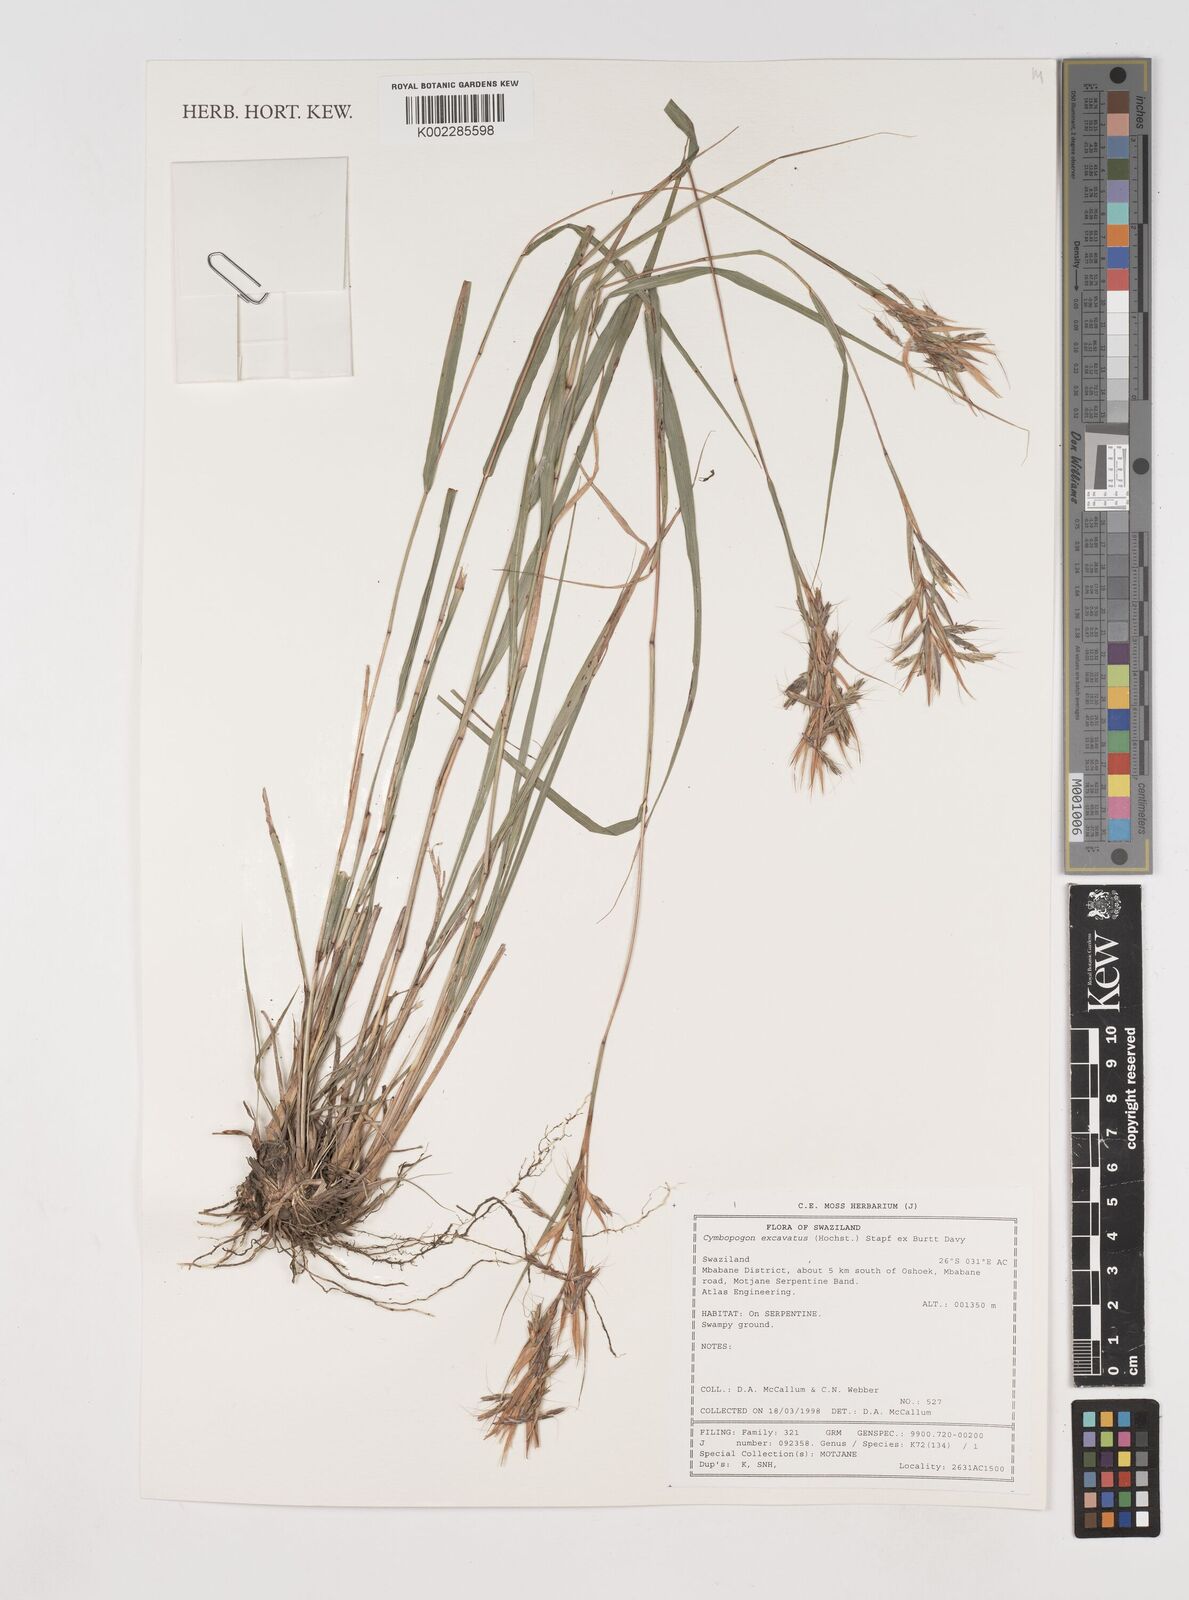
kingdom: Plantae
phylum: Tracheophyta
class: Liliopsida
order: Poales
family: Poaceae
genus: Cymbopogon
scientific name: Cymbopogon caesius
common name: Kachi grass
